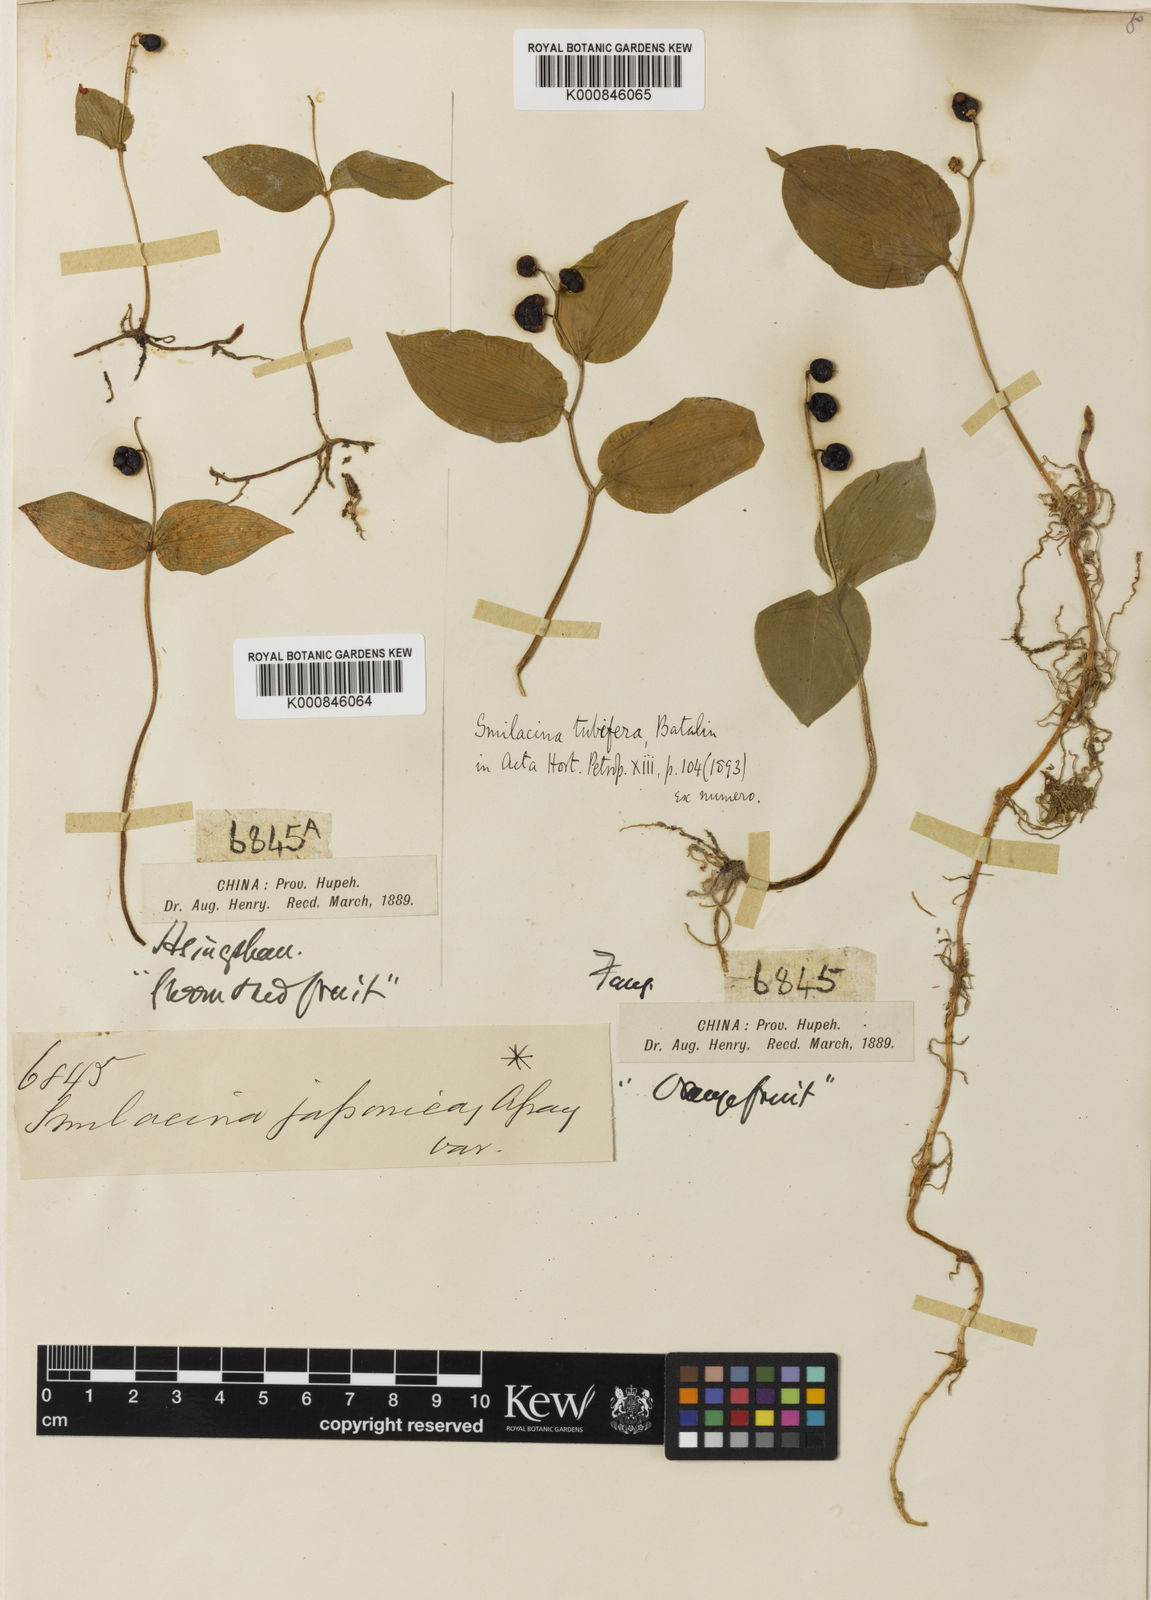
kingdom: Plantae
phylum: Tracheophyta
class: Liliopsida
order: Asparagales
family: Asparagaceae
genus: Maianthemum
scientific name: Maianthemum tubiferum
